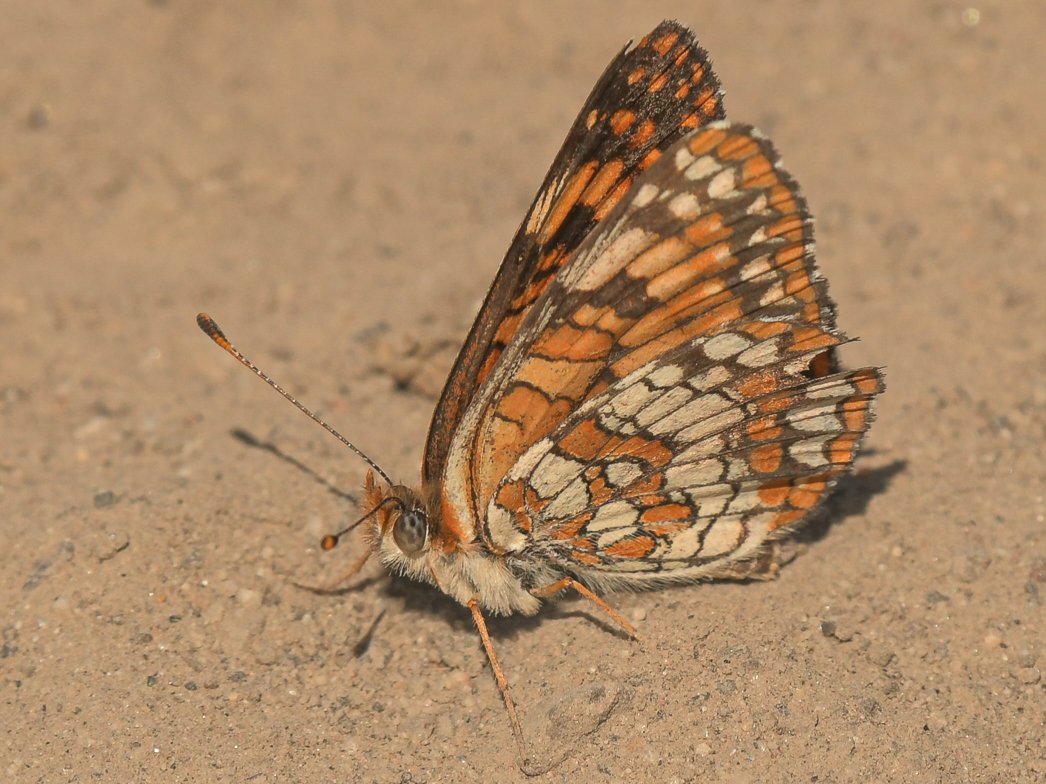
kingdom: Animalia
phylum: Arthropoda
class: Insecta
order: Lepidoptera
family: Nymphalidae
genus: Chlosyne
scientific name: Chlosyne palla
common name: Northern Checkerspot
